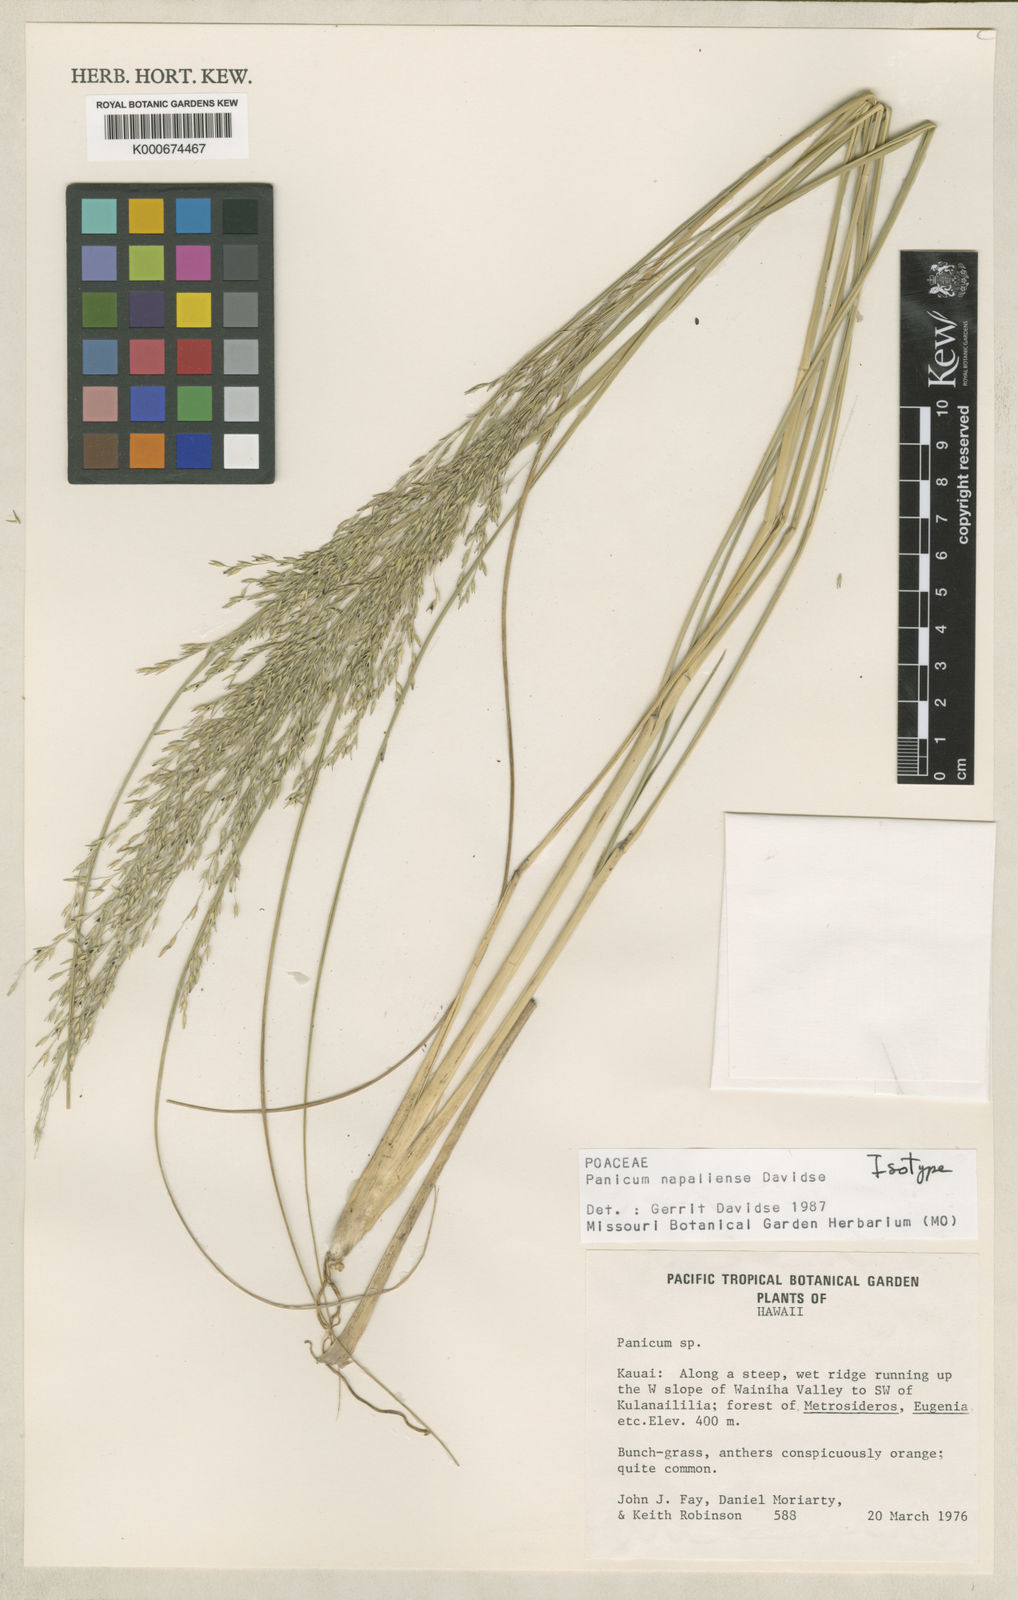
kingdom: Plantae
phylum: Tracheophyta
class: Liliopsida
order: Poales
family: Poaceae
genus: Panicum
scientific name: Panicum lineale
